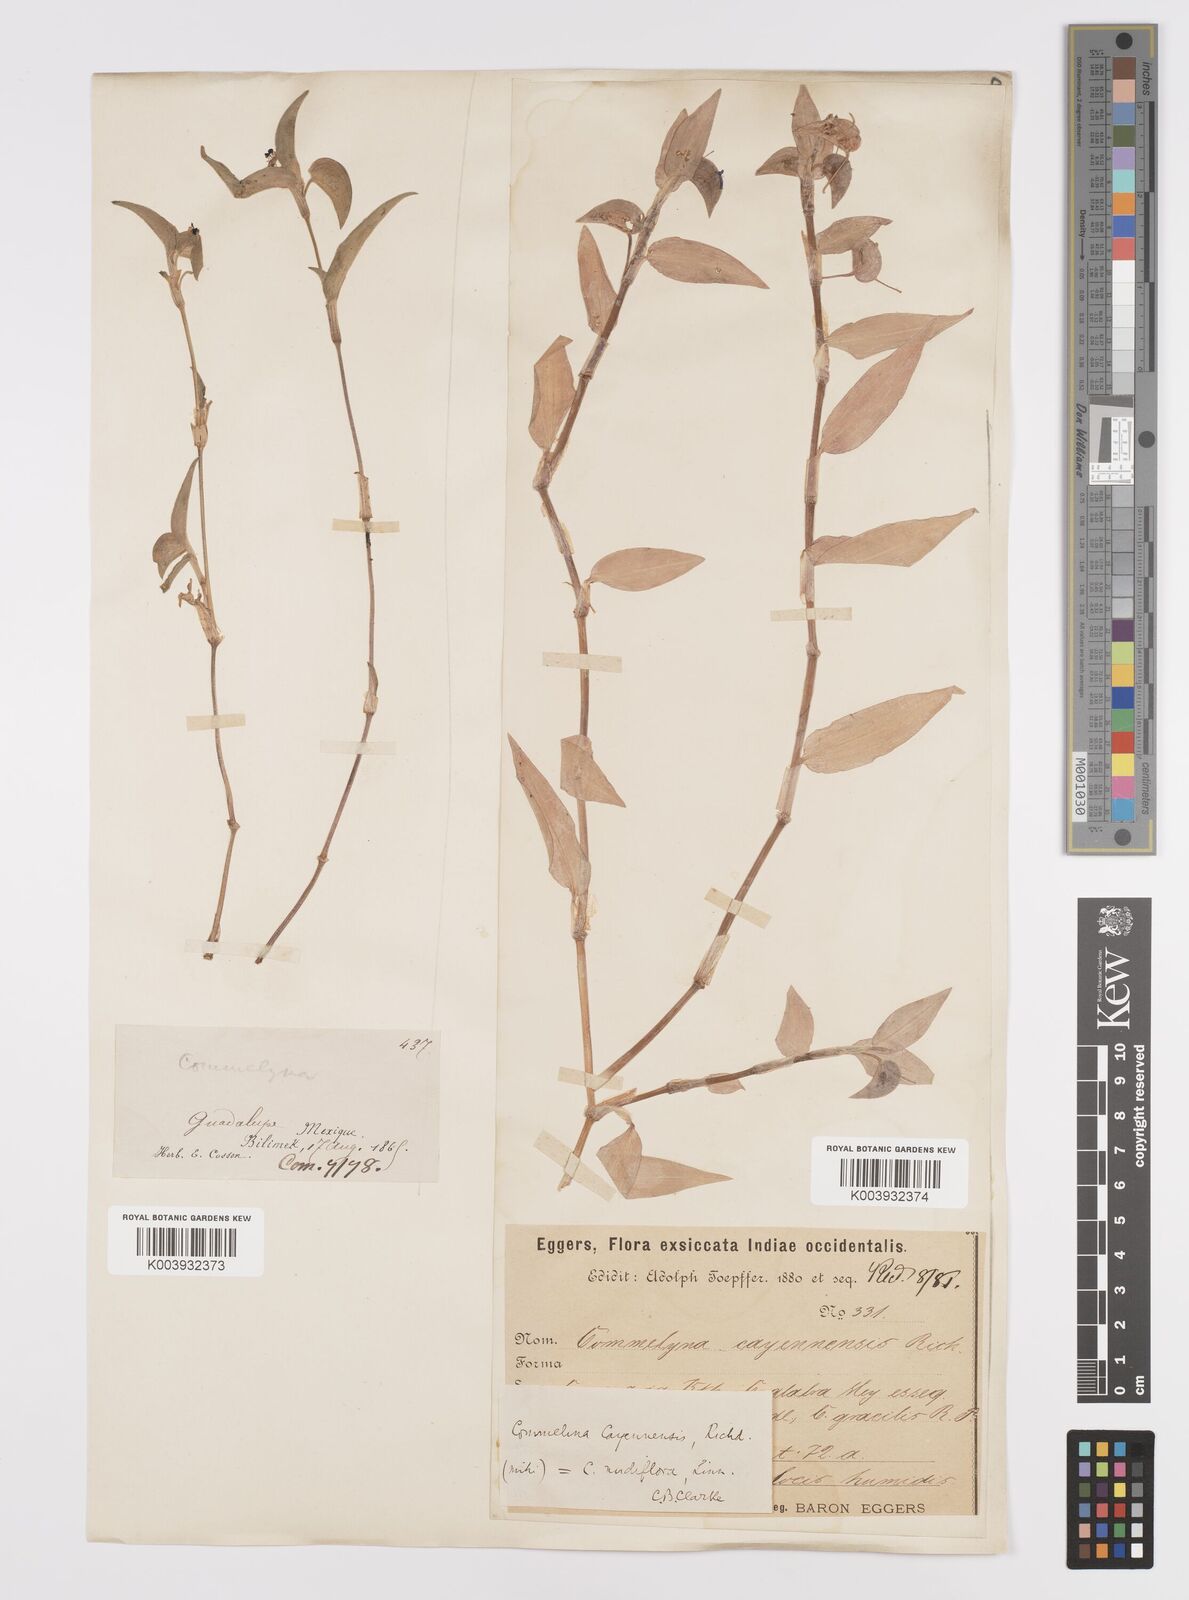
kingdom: Plantae
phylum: Tracheophyta
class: Liliopsida
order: Commelinales
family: Commelinaceae
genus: Commelina
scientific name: Commelina
